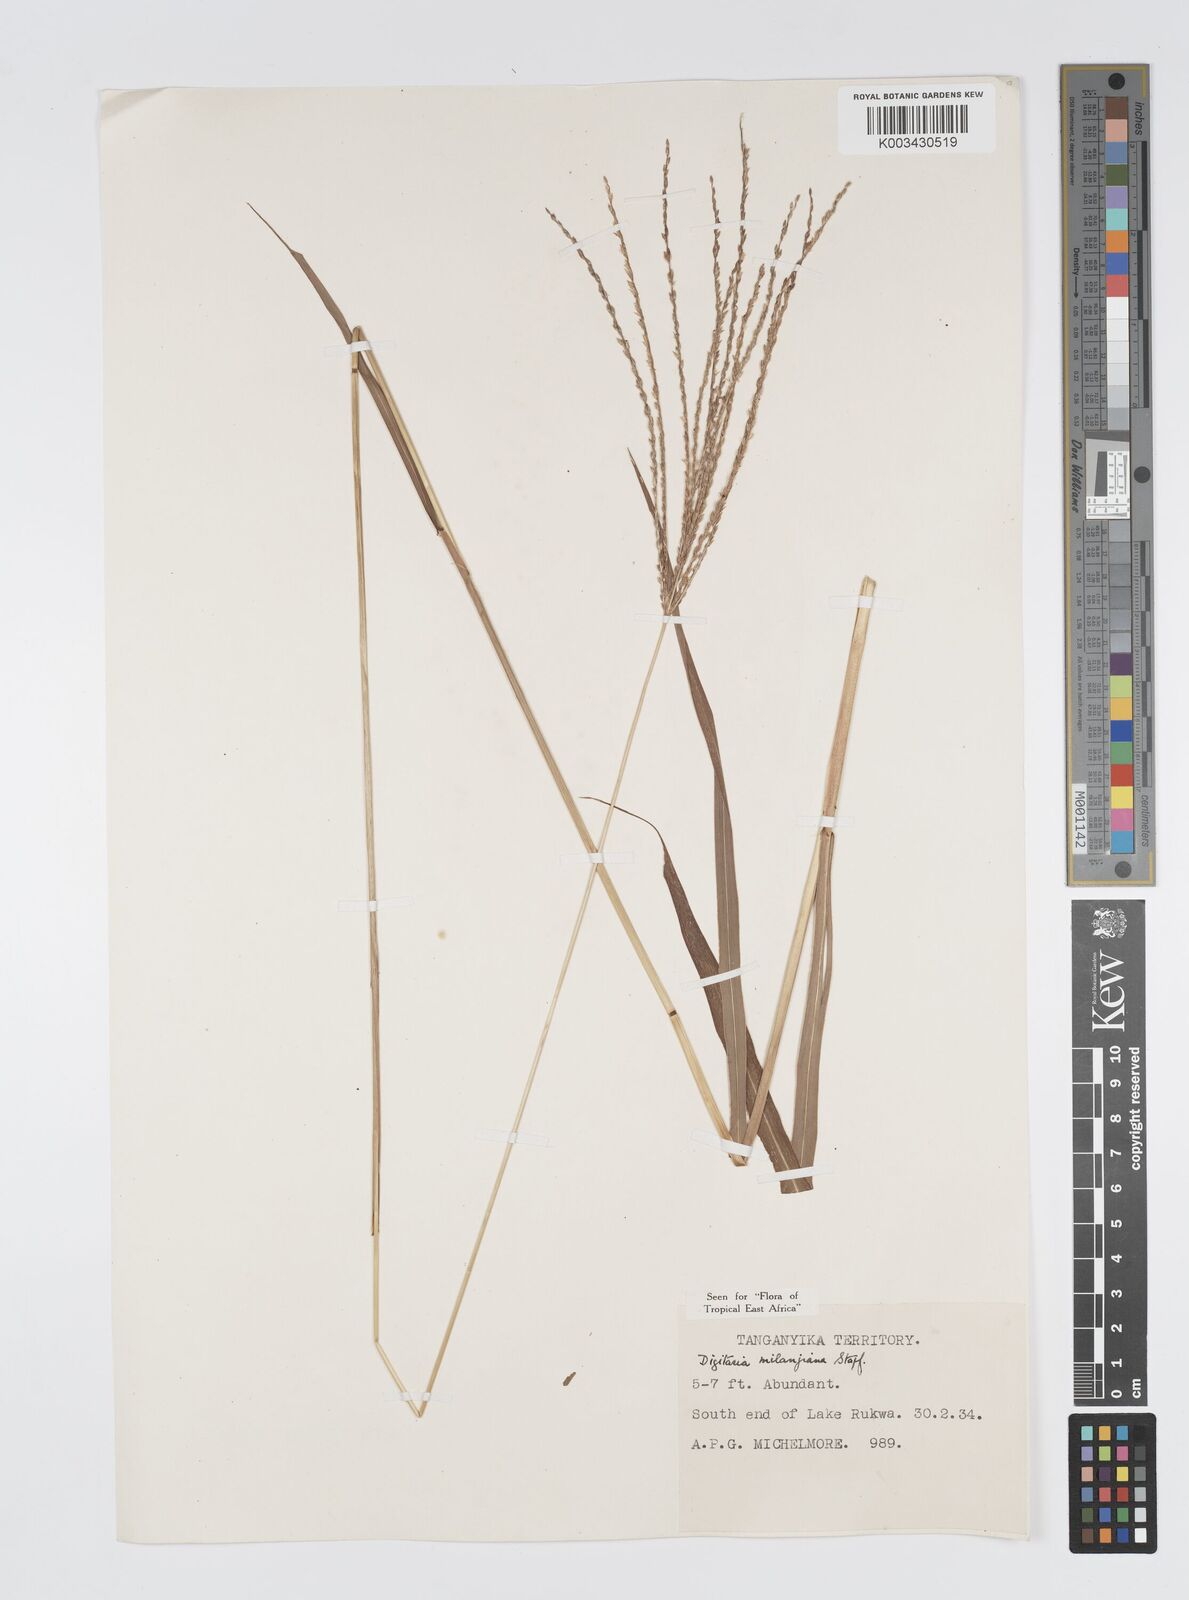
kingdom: Plantae
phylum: Tracheophyta
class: Liliopsida
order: Poales
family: Poaceae
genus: Digitaria
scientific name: Digitaria milanjiana
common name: Madagascar crabgrass
